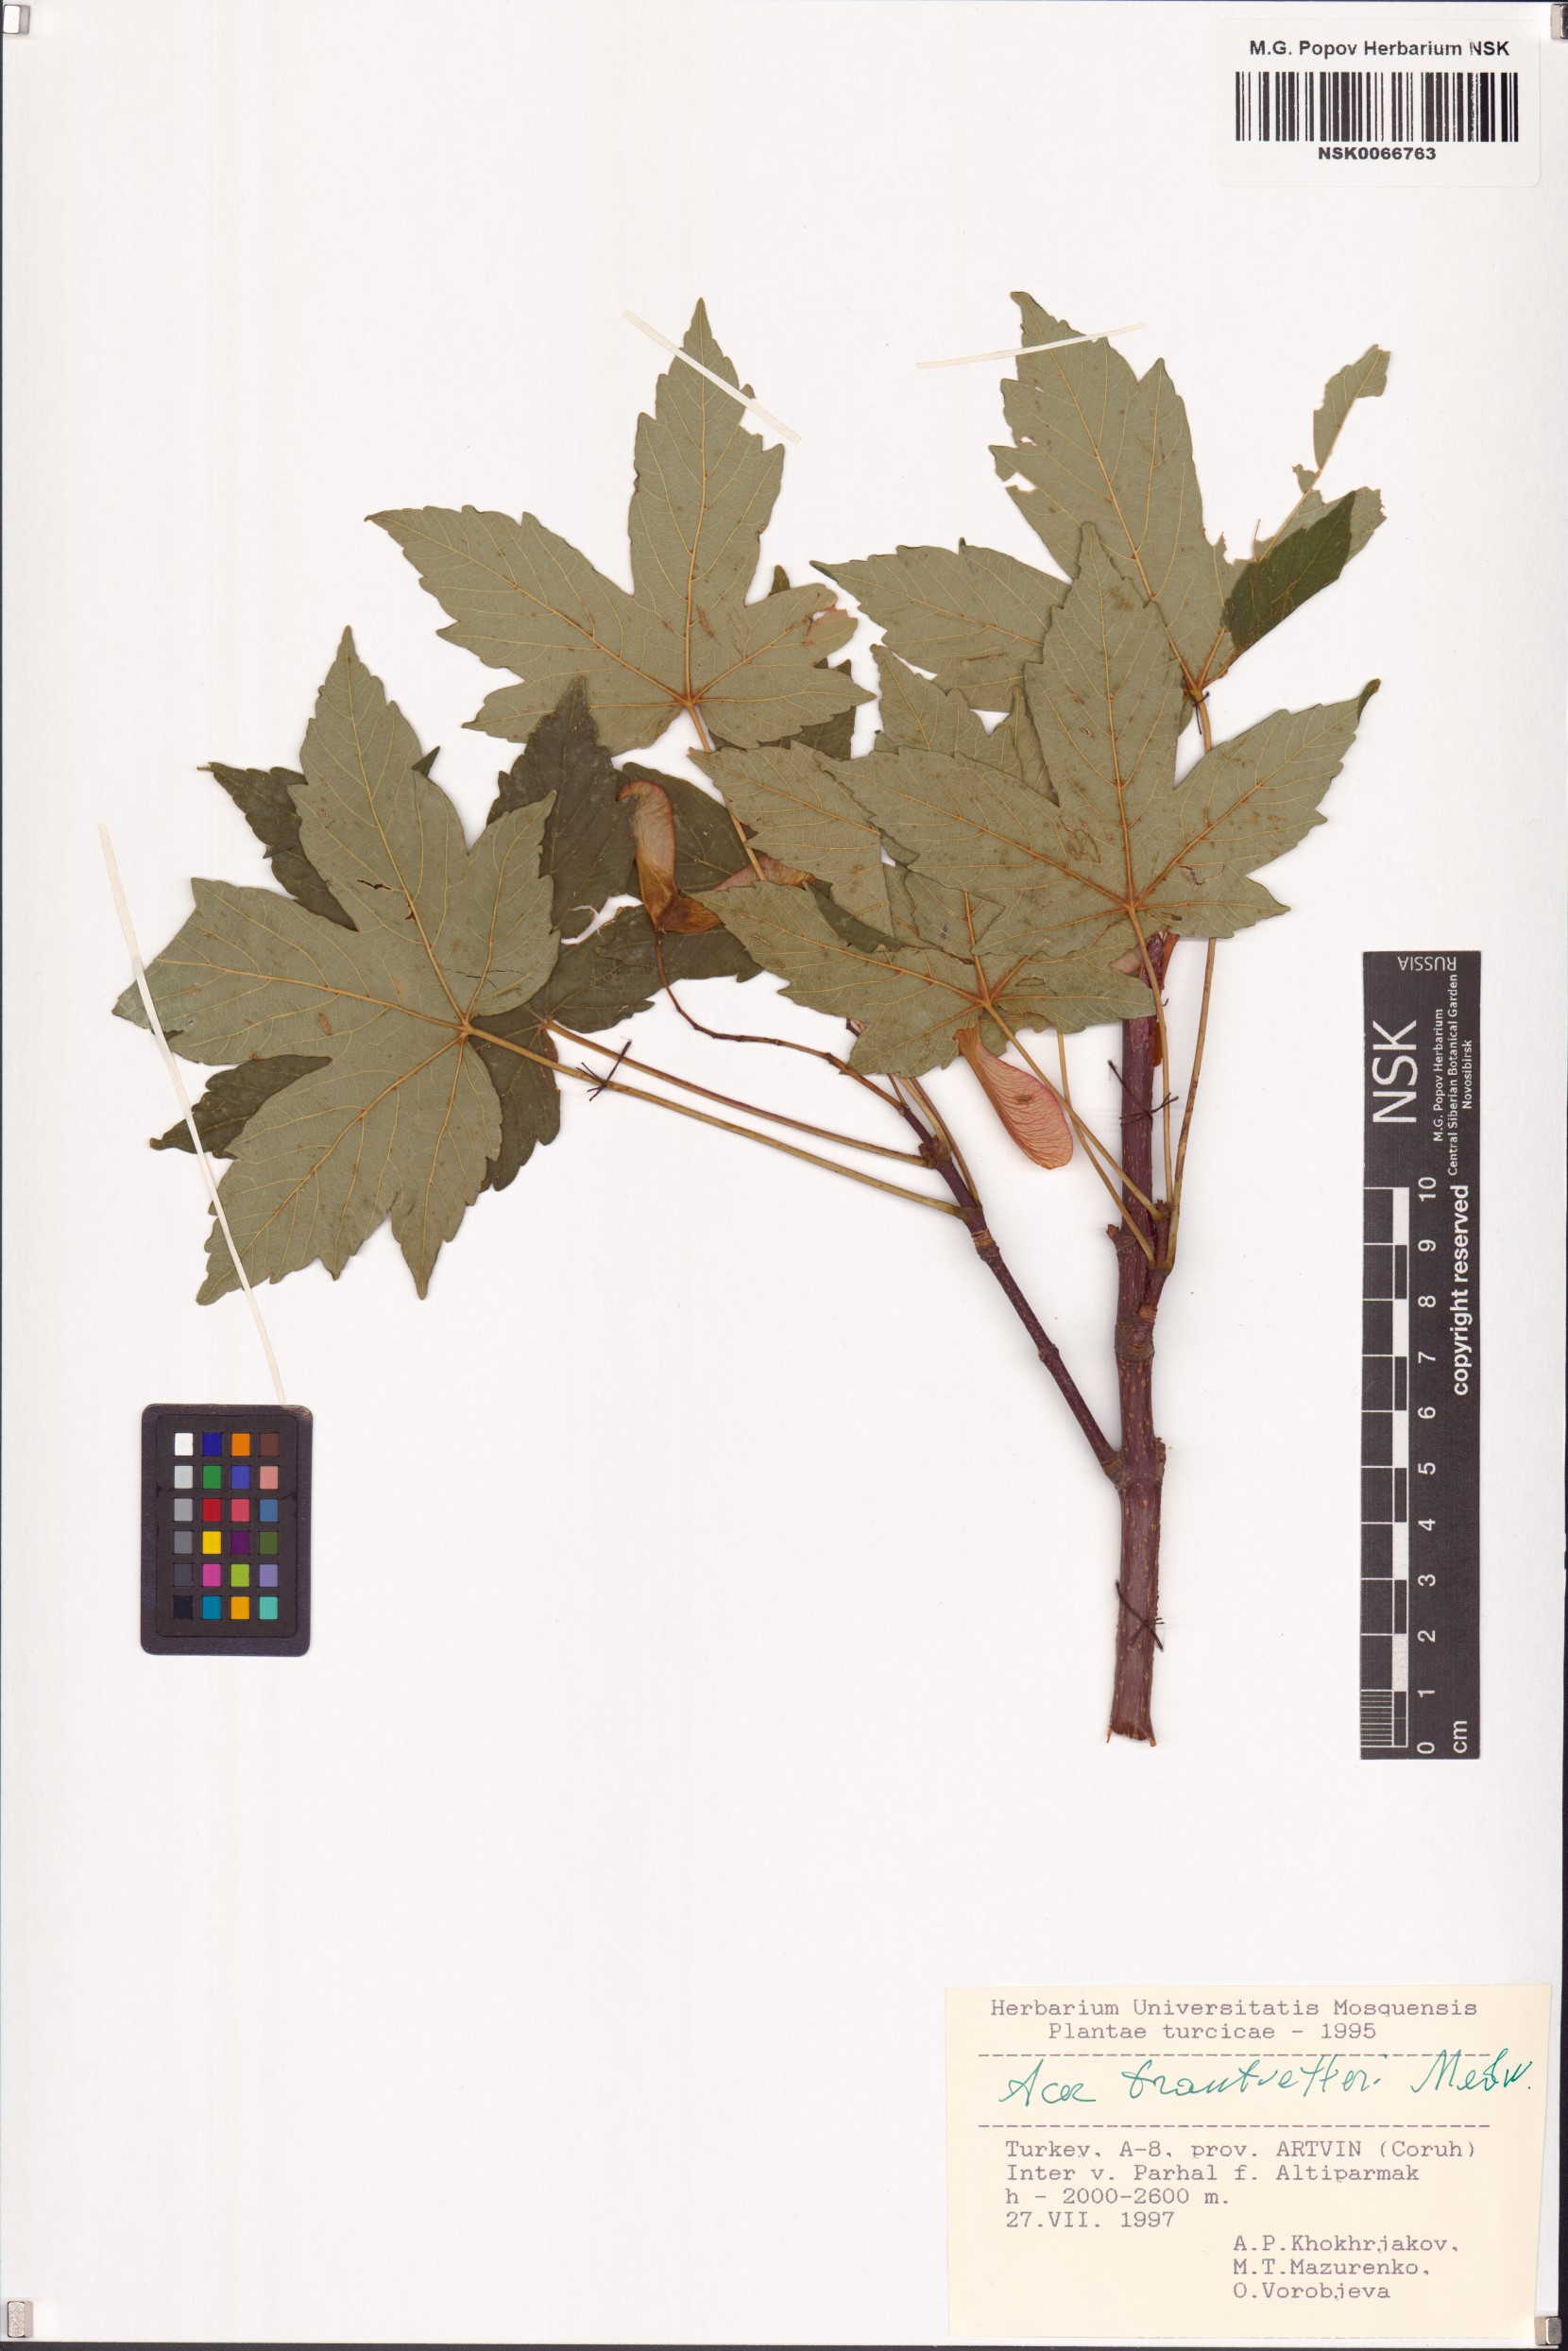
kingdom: Plantae
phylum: Tracheophyta
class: Magnoliopsida
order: Sapindales
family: Sapindaceae
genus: Acer
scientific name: Acer heldreichii
